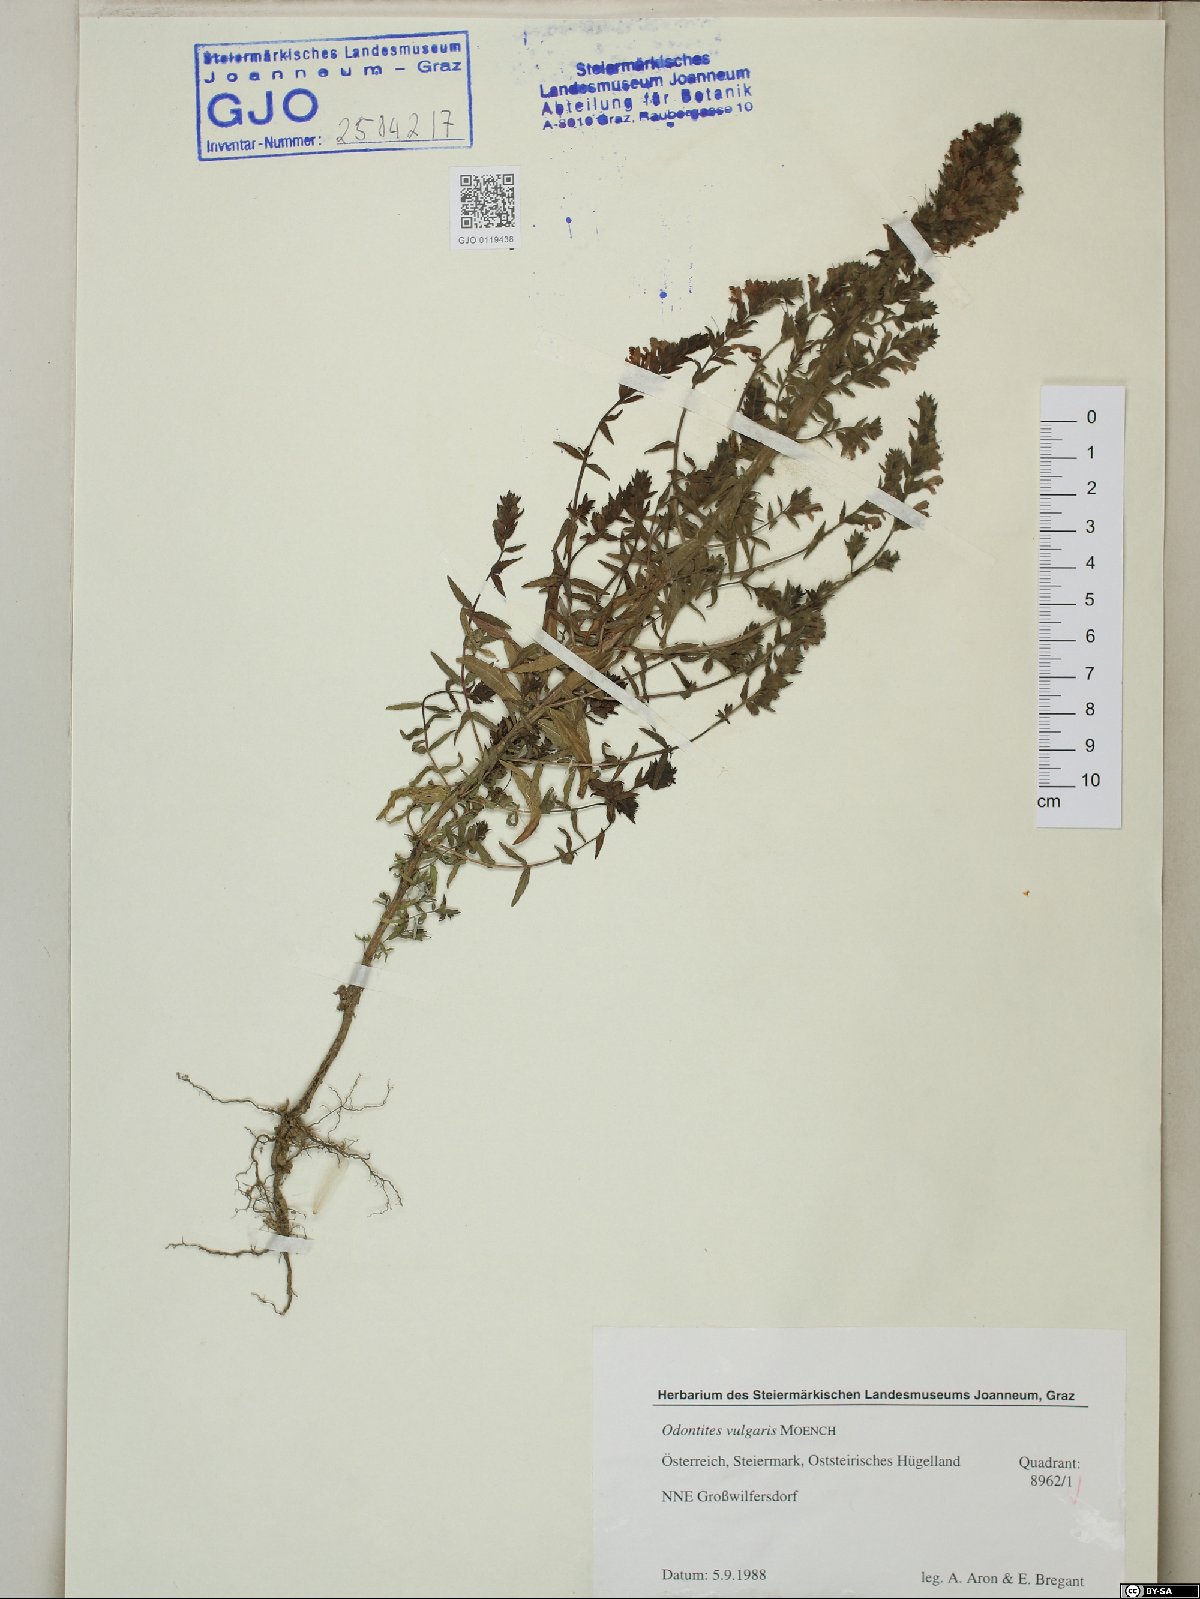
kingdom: Plantae
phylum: Tracheophyta
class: Magnoliopsida
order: Lamiales
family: Orobanchaceae
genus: Odontites
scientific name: Odontites vulgaris
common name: Broomrape
